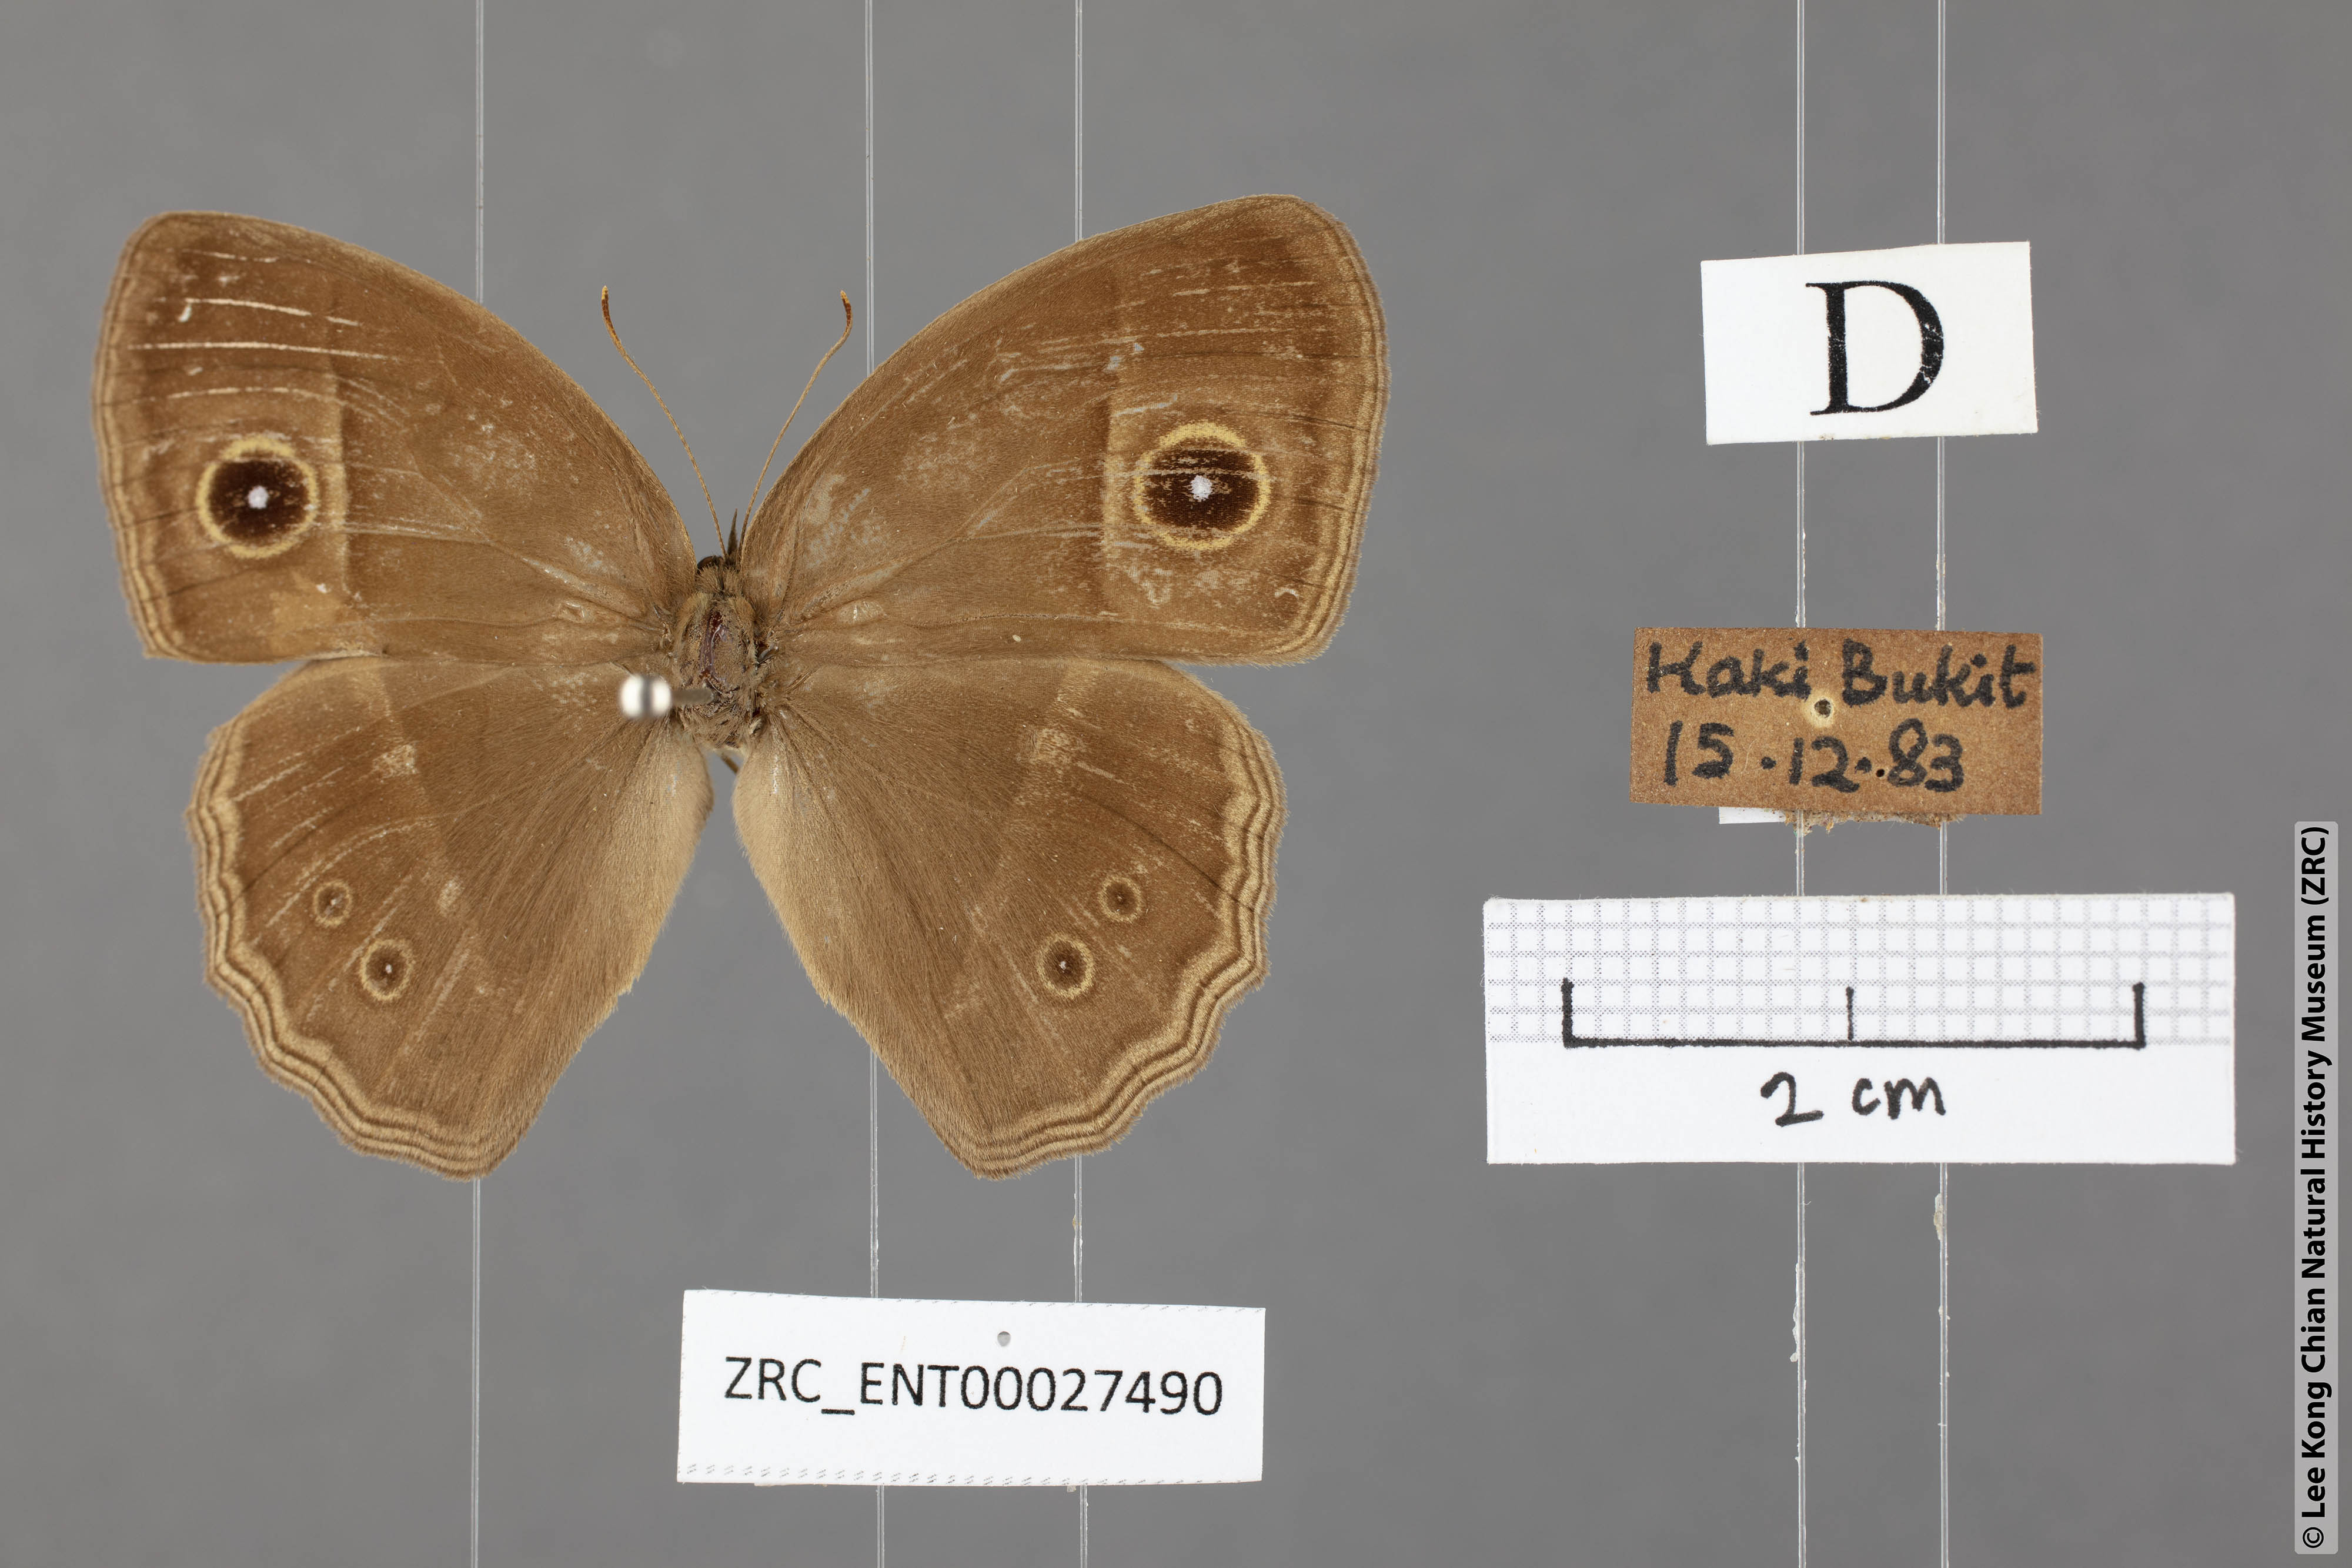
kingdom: Animalia
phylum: Arthropoda
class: Insecta
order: Lepidoptera
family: Nymphalidae
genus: Mycalesis
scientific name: Mycalesis horsfieldii
